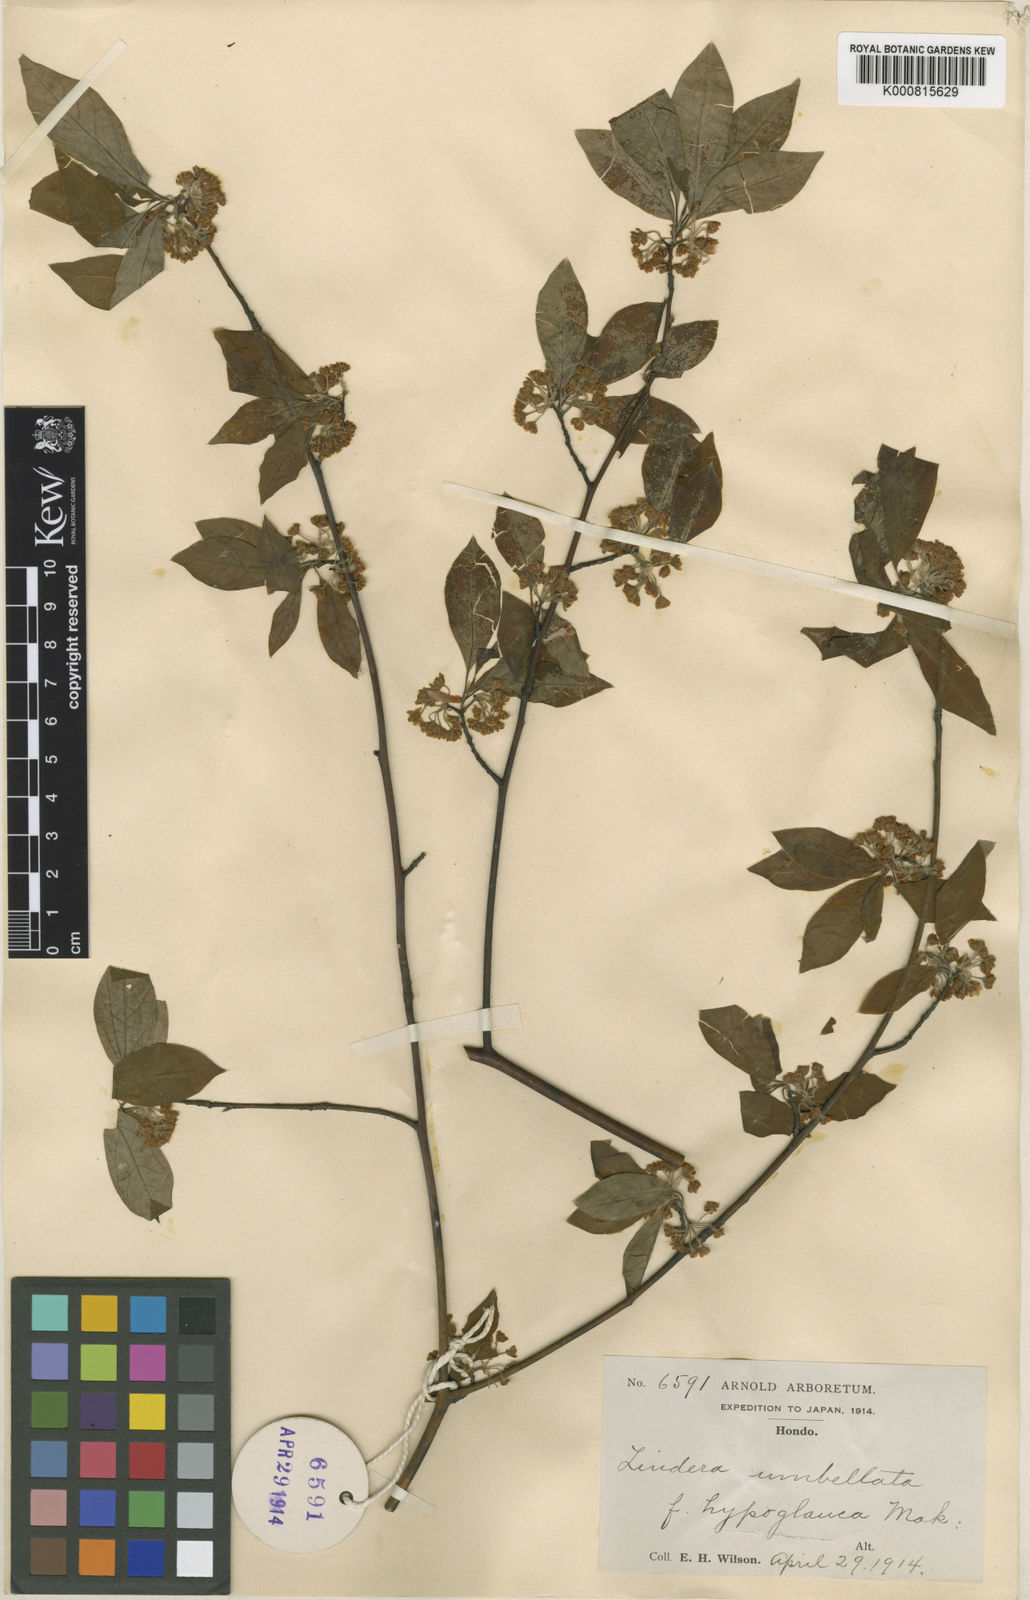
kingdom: Plantae
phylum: Tracheophyta
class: Magnoliopsida
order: Laurales
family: Lauraceae
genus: Lindera
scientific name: Lindera umbellata
